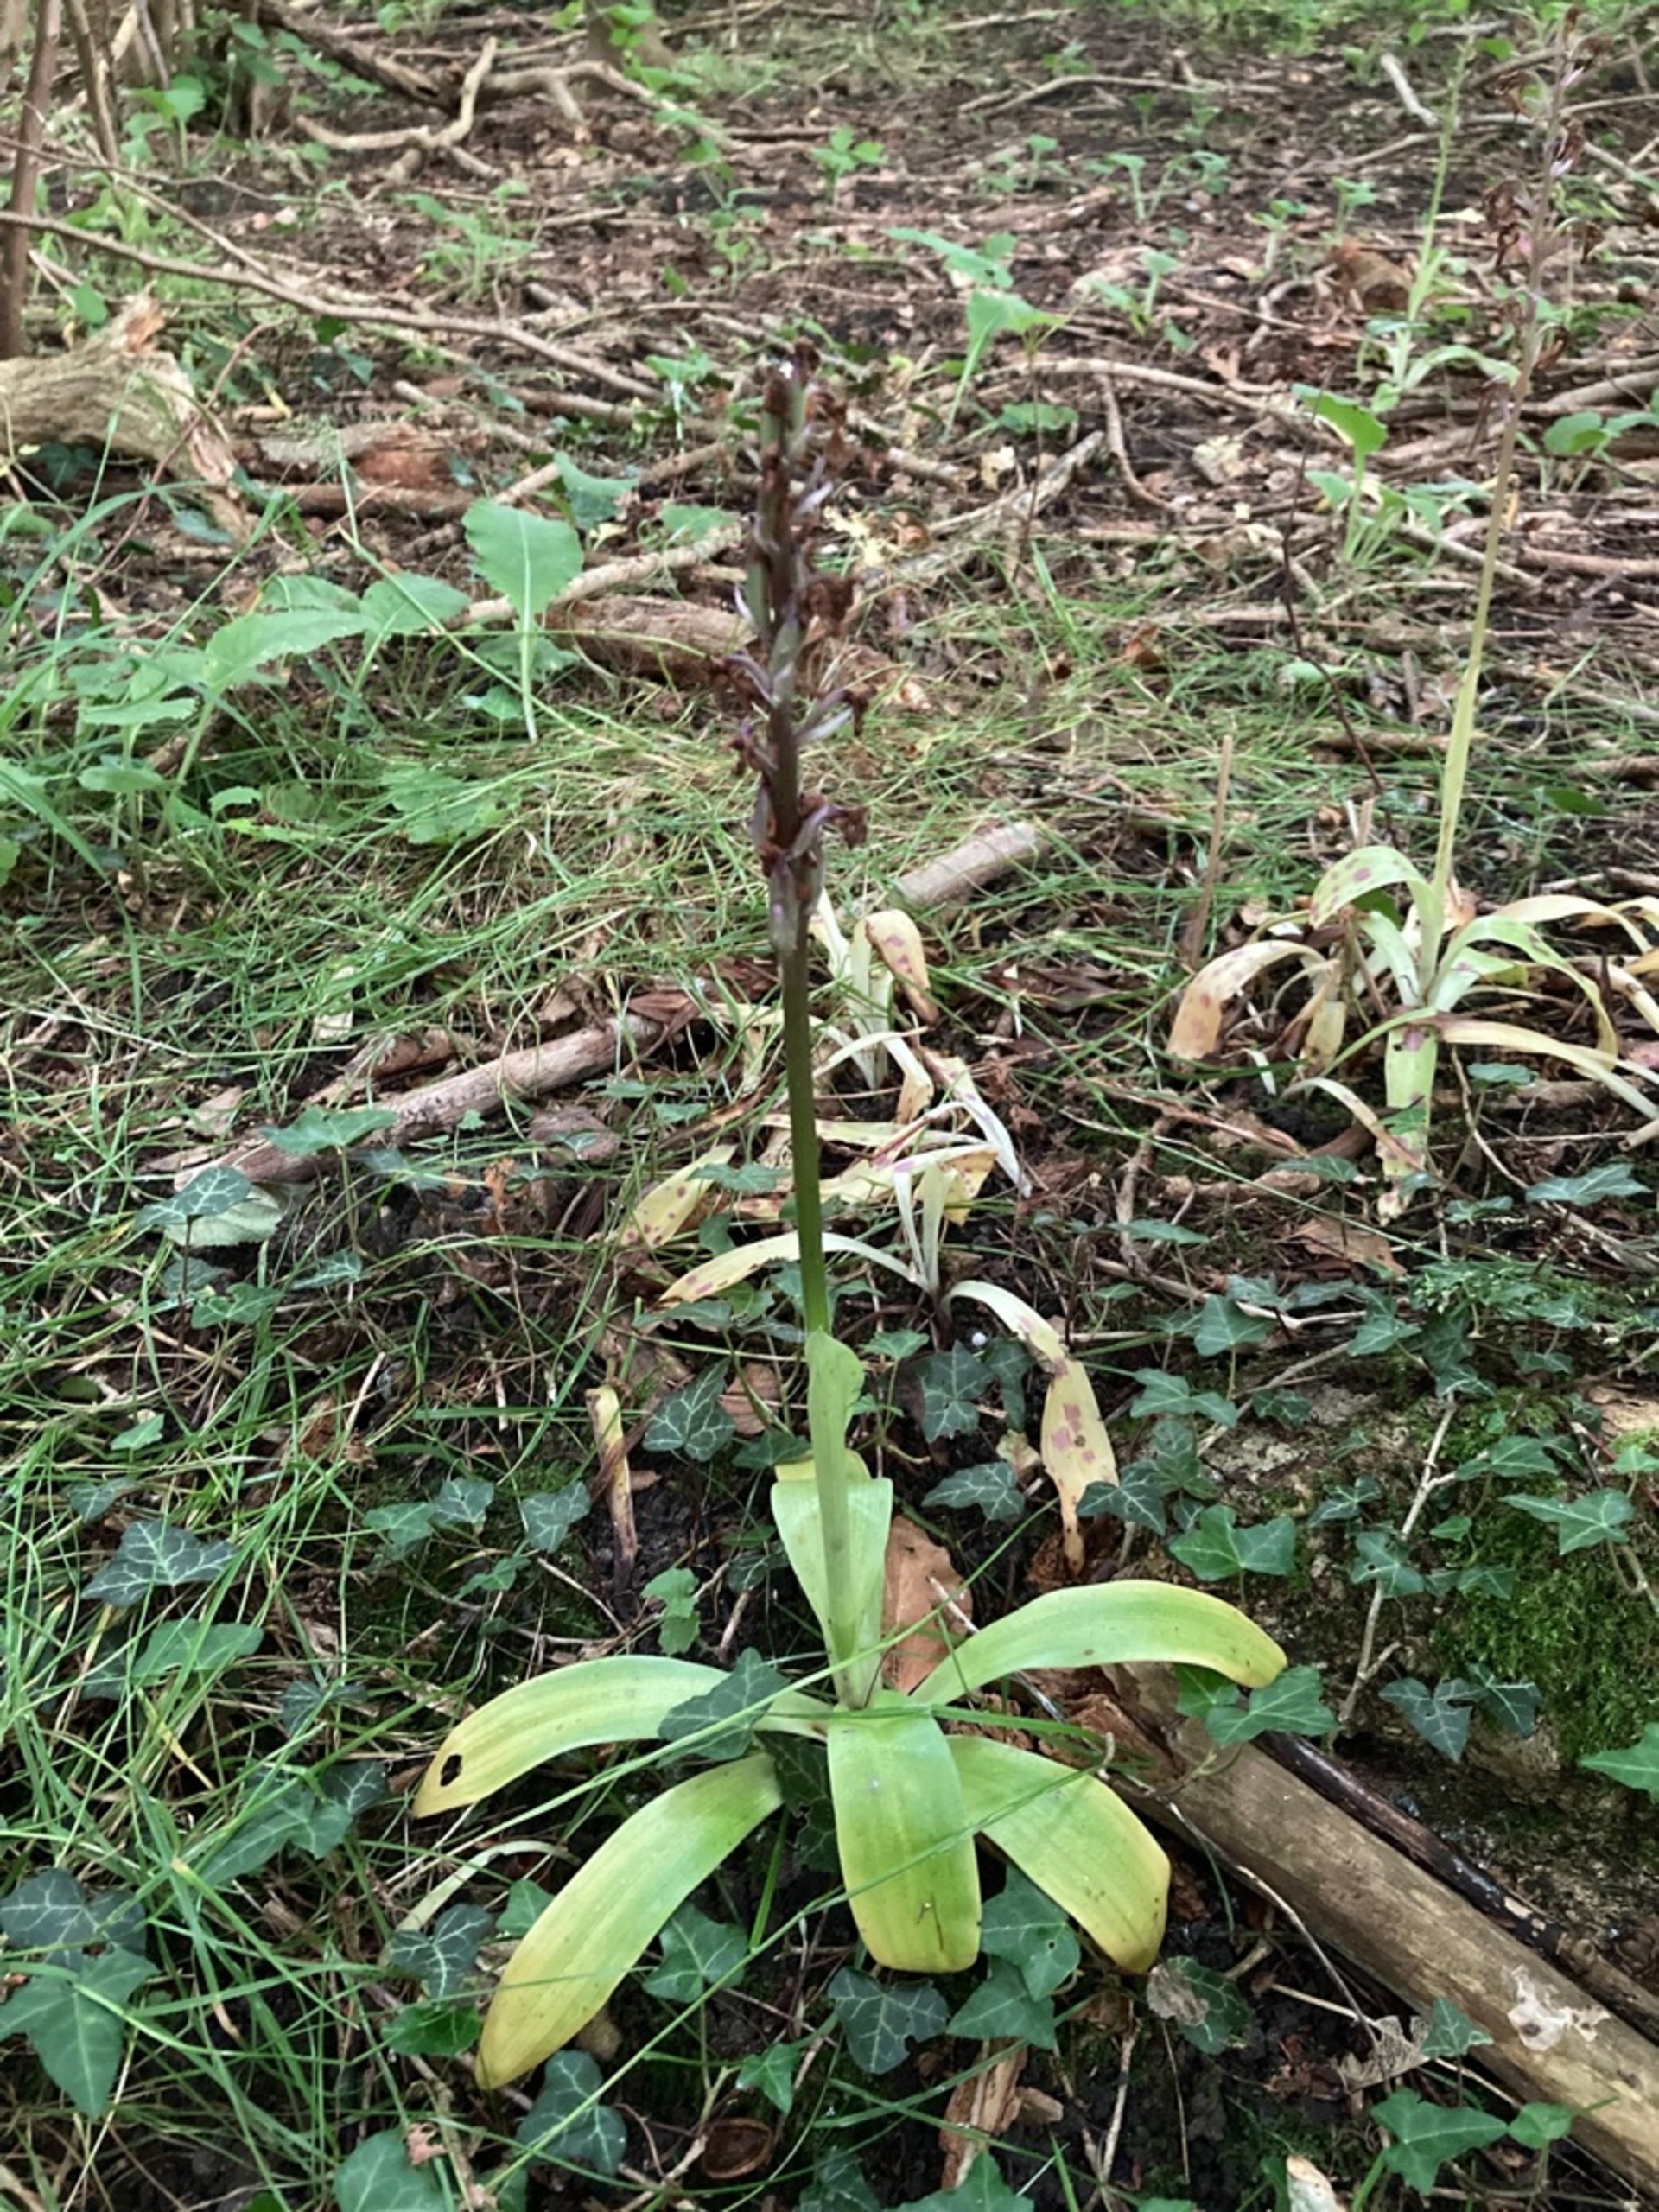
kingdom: Plantae
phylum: Tracheophyta
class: Liliopsida
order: Asparagales
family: Orchidaceae
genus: Orchis
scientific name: Orchis mascula
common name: Tyndakset gøgeurt
